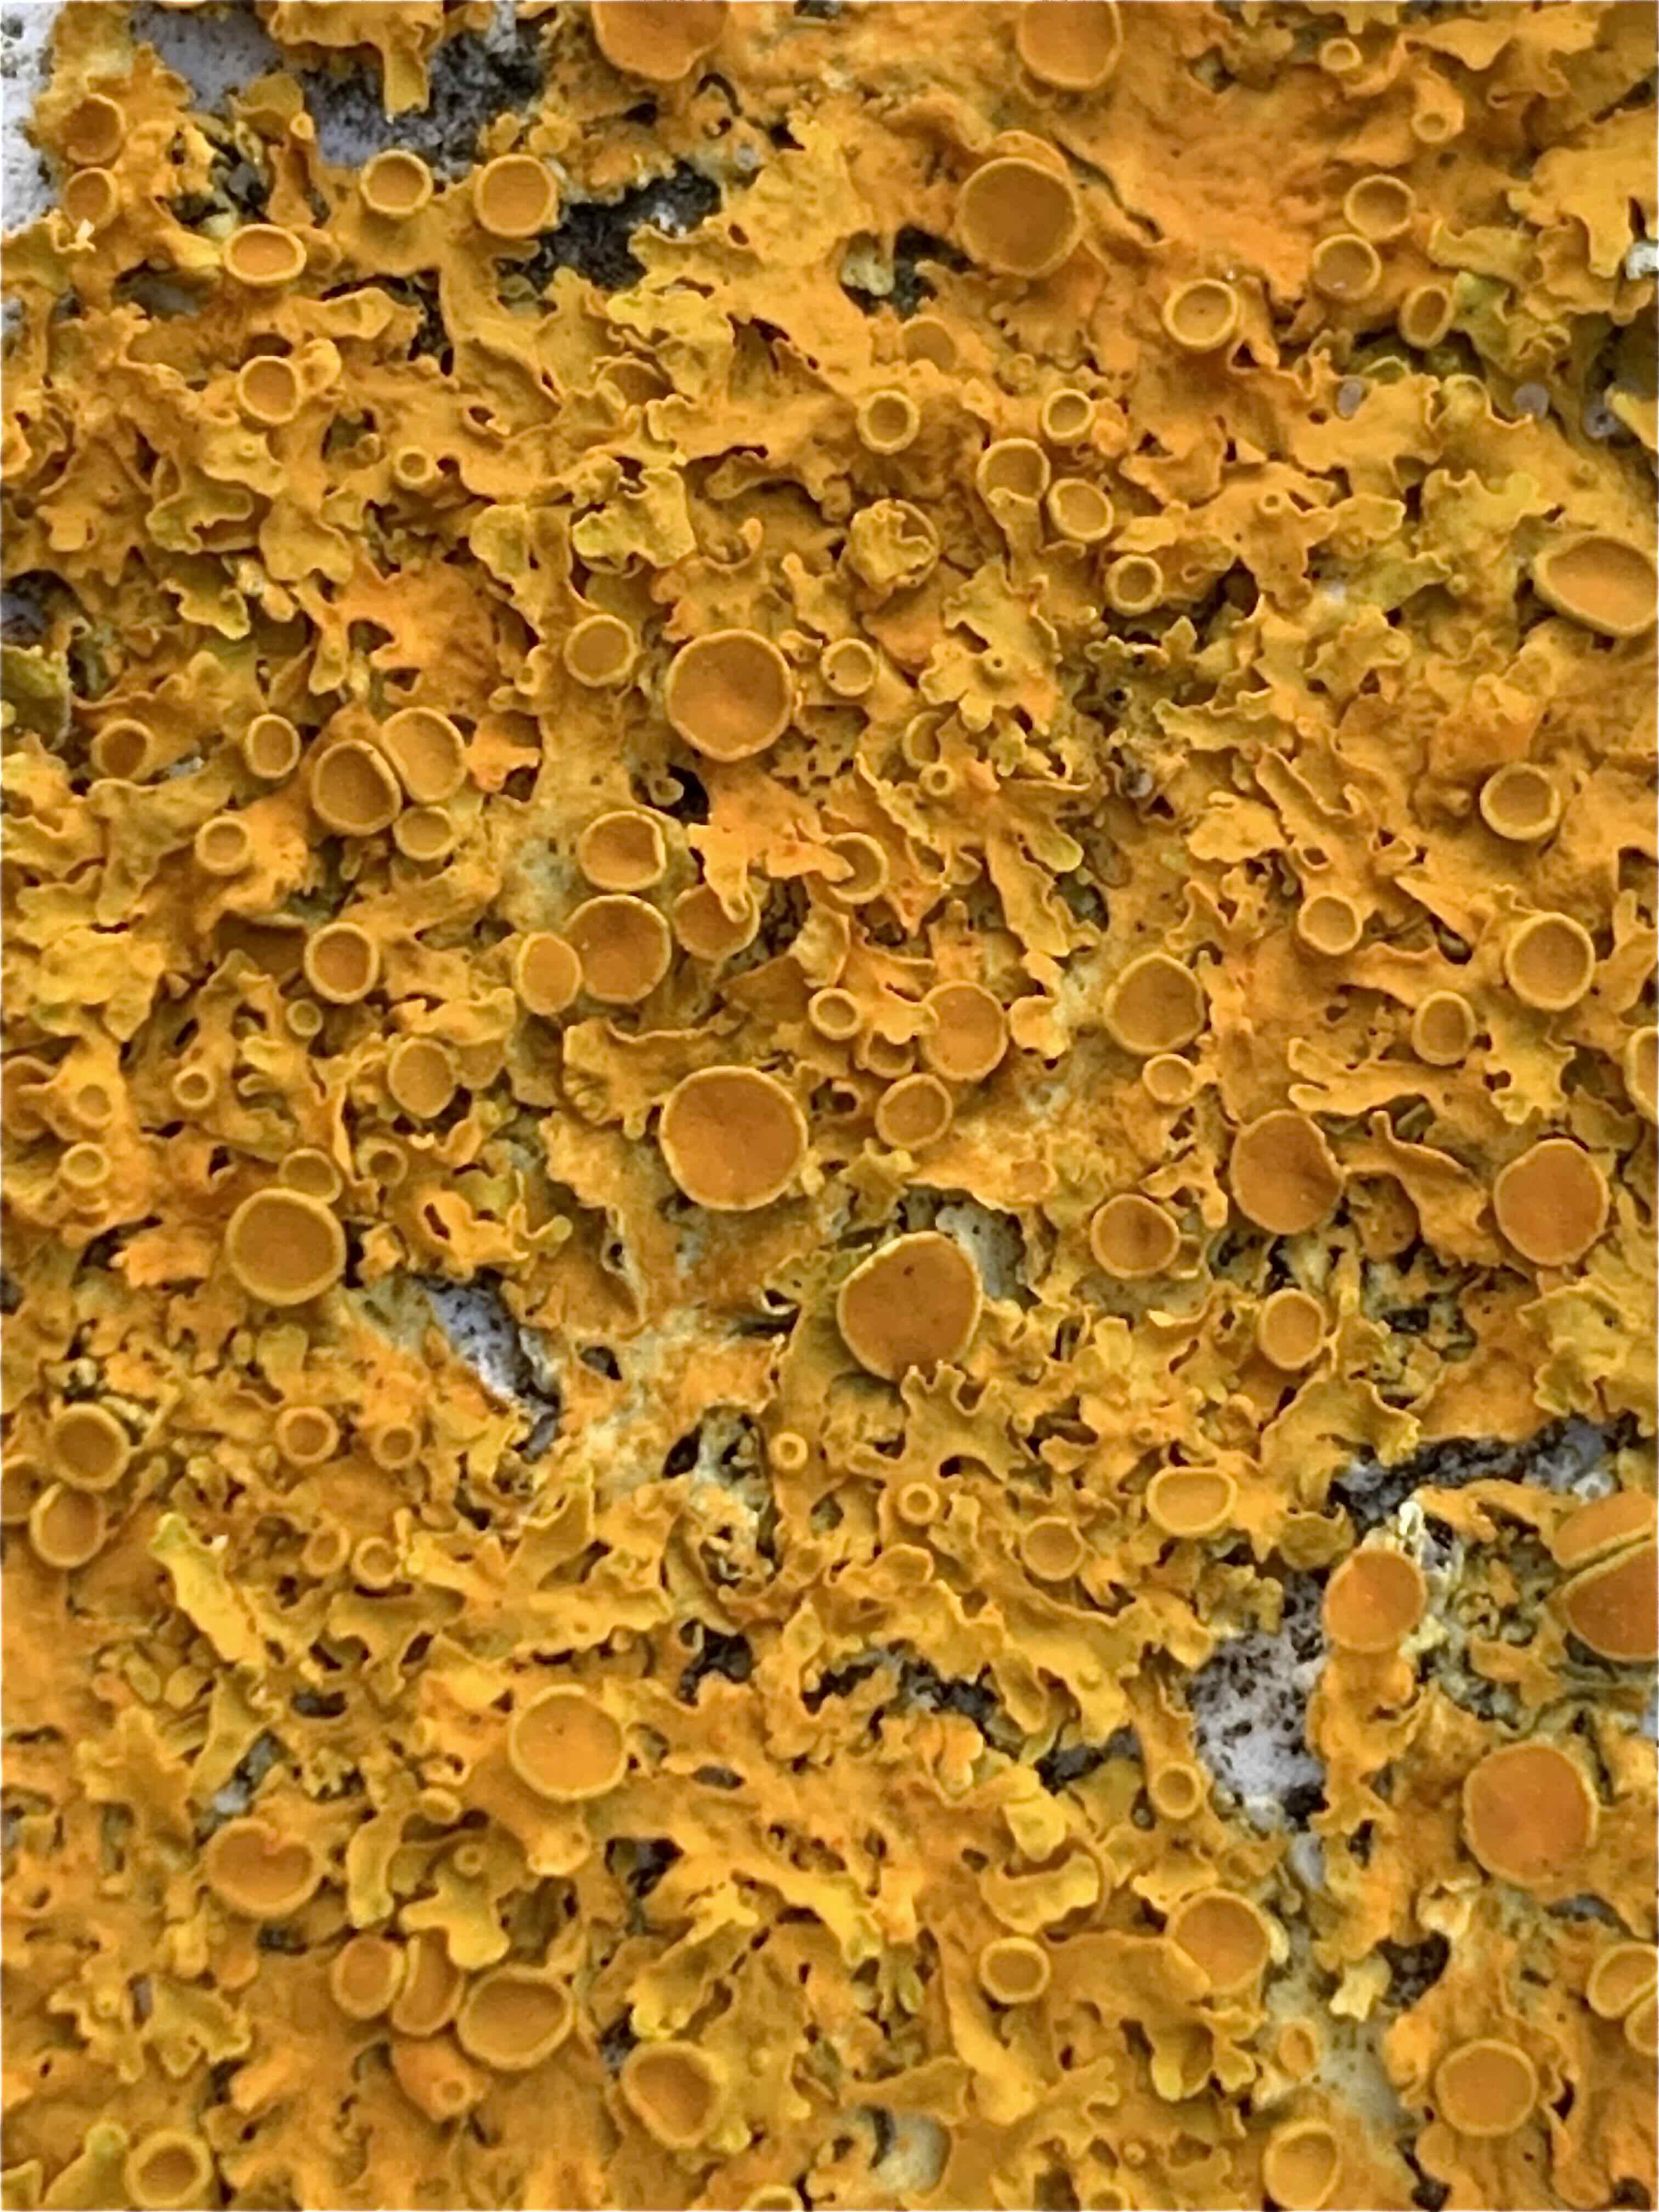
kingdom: Fungi
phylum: Ascomycota
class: Lecanoromycetes
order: Teloschistales
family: Teloschistaceae
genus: Xanthoria
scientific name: Xanthoria parietina
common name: almindelig væggelav
